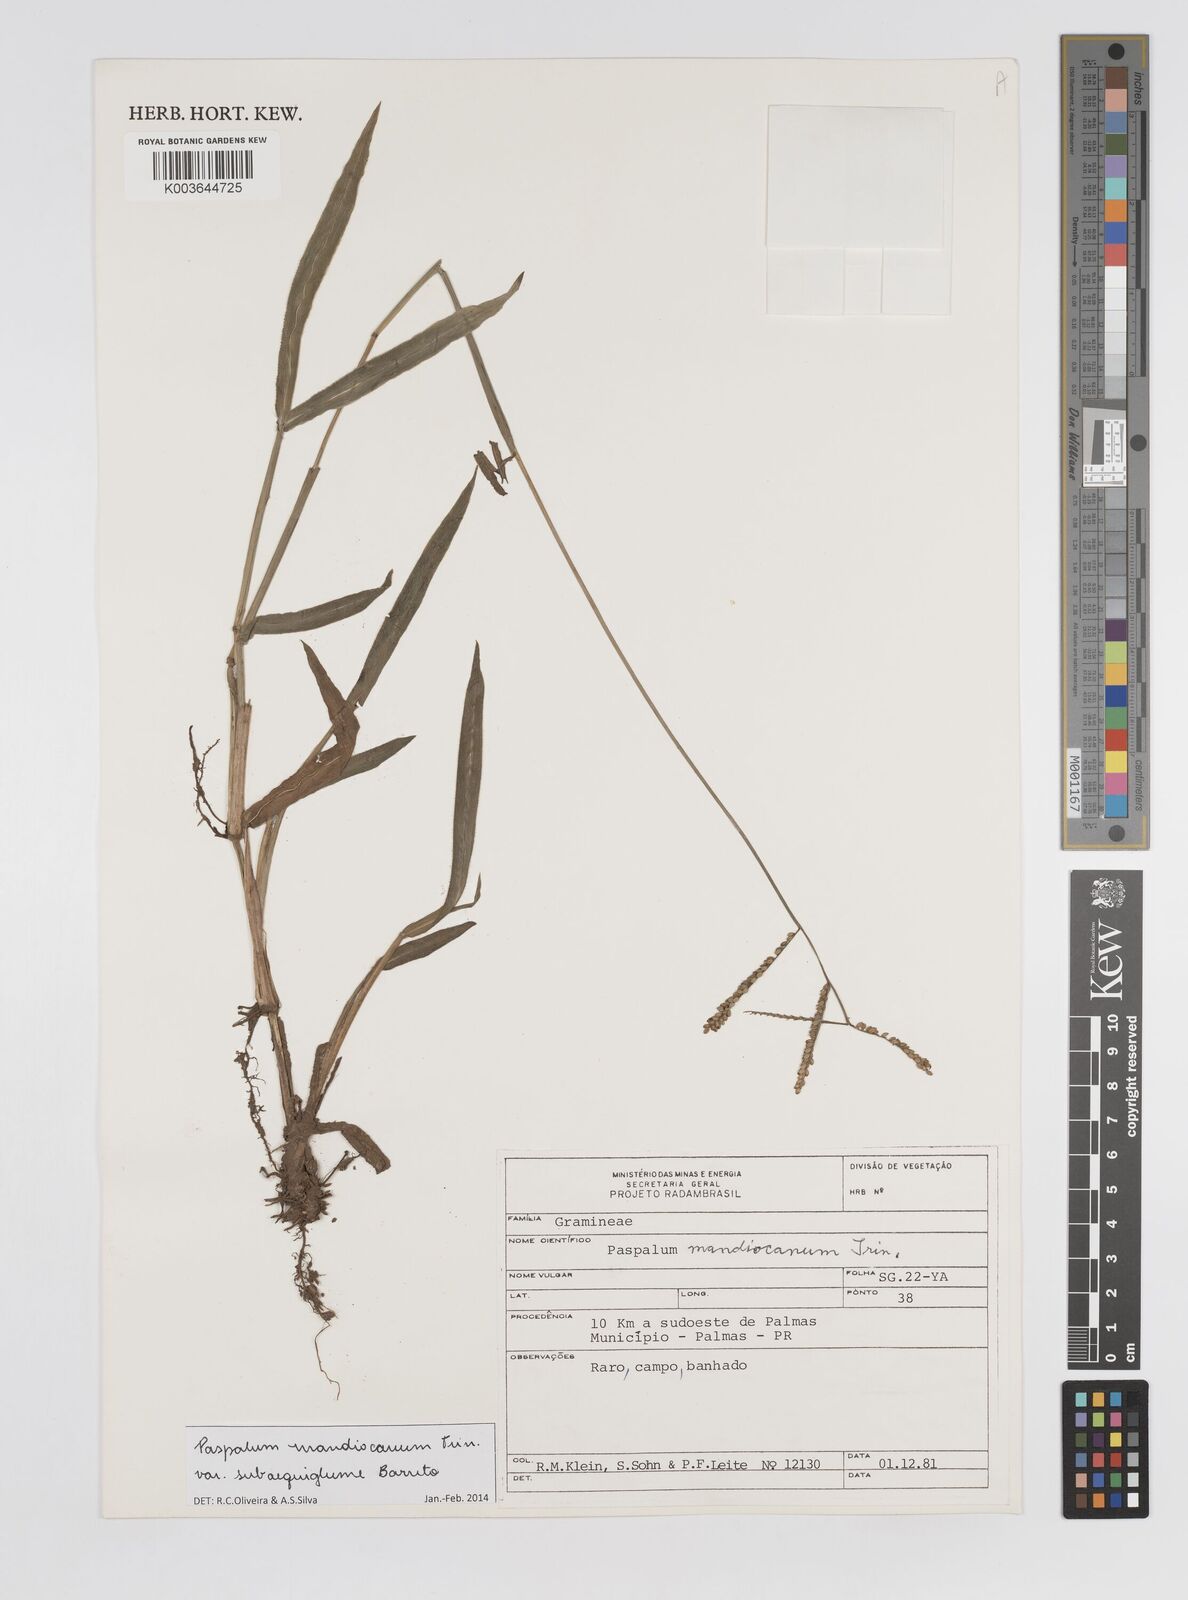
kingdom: Plantae
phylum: Tracheophyta
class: Liliopsida
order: Poales
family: Poaceae
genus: Paspalum
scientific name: Paspalum mandiocanum
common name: Paspalum
